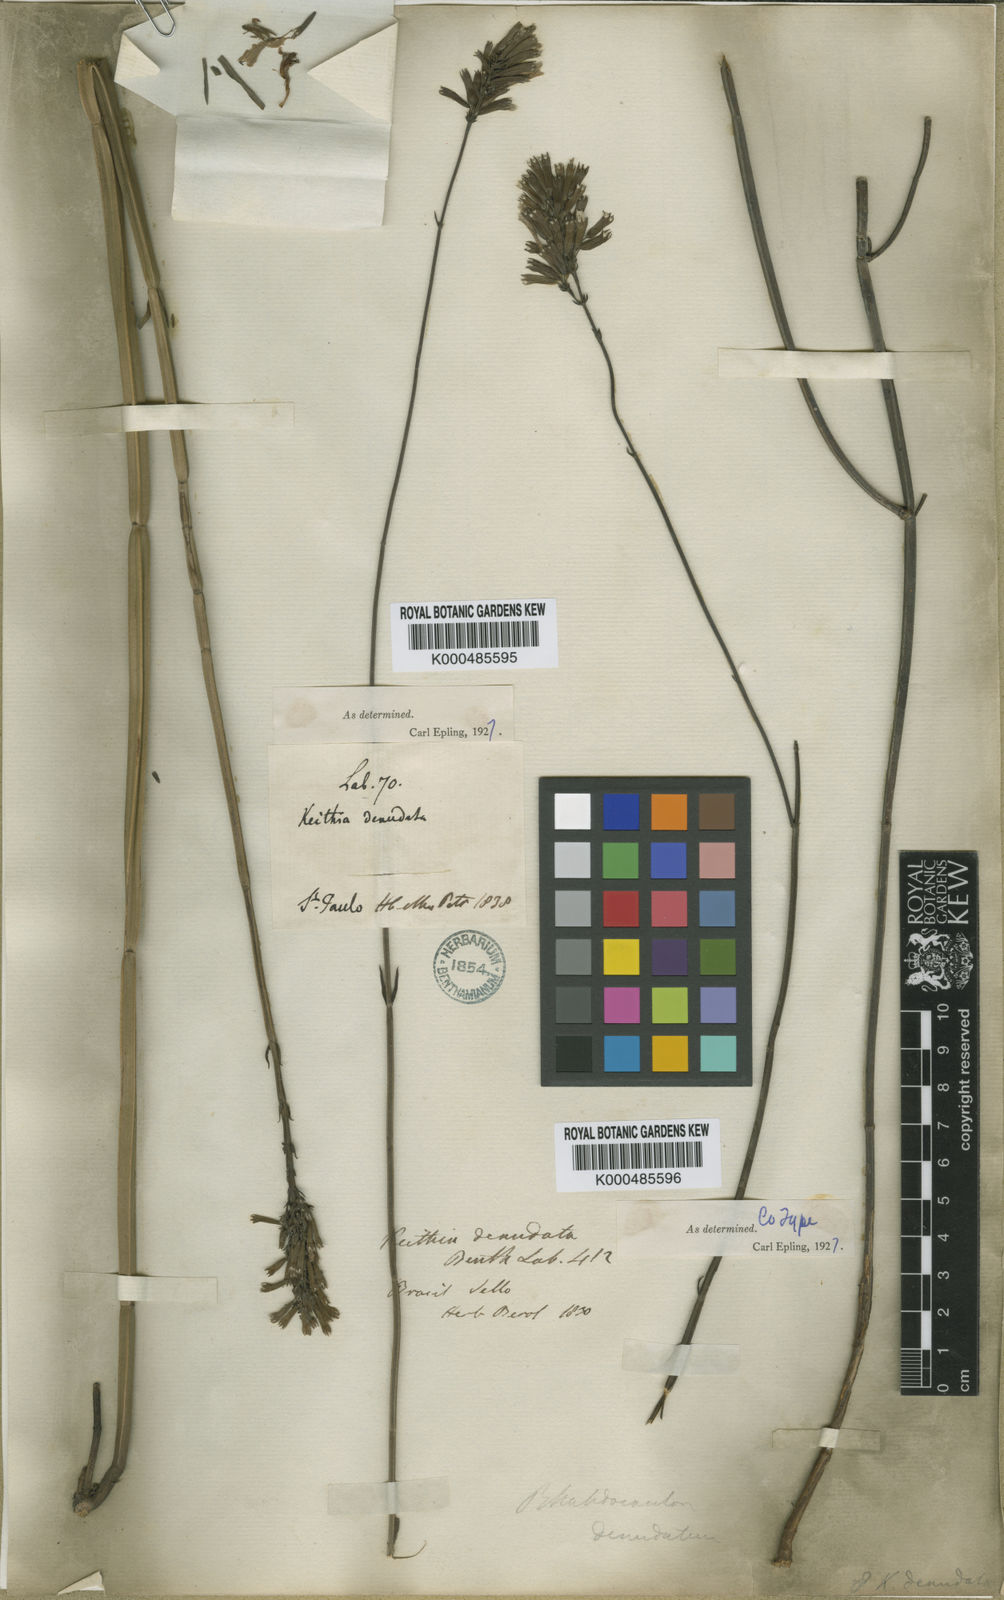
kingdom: Plantae
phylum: Tracheophyta
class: Magnoliopsida
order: Lamiales
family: Lamiaceae
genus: Rhabdocaulon
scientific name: Rhabdocaulon denudatum
